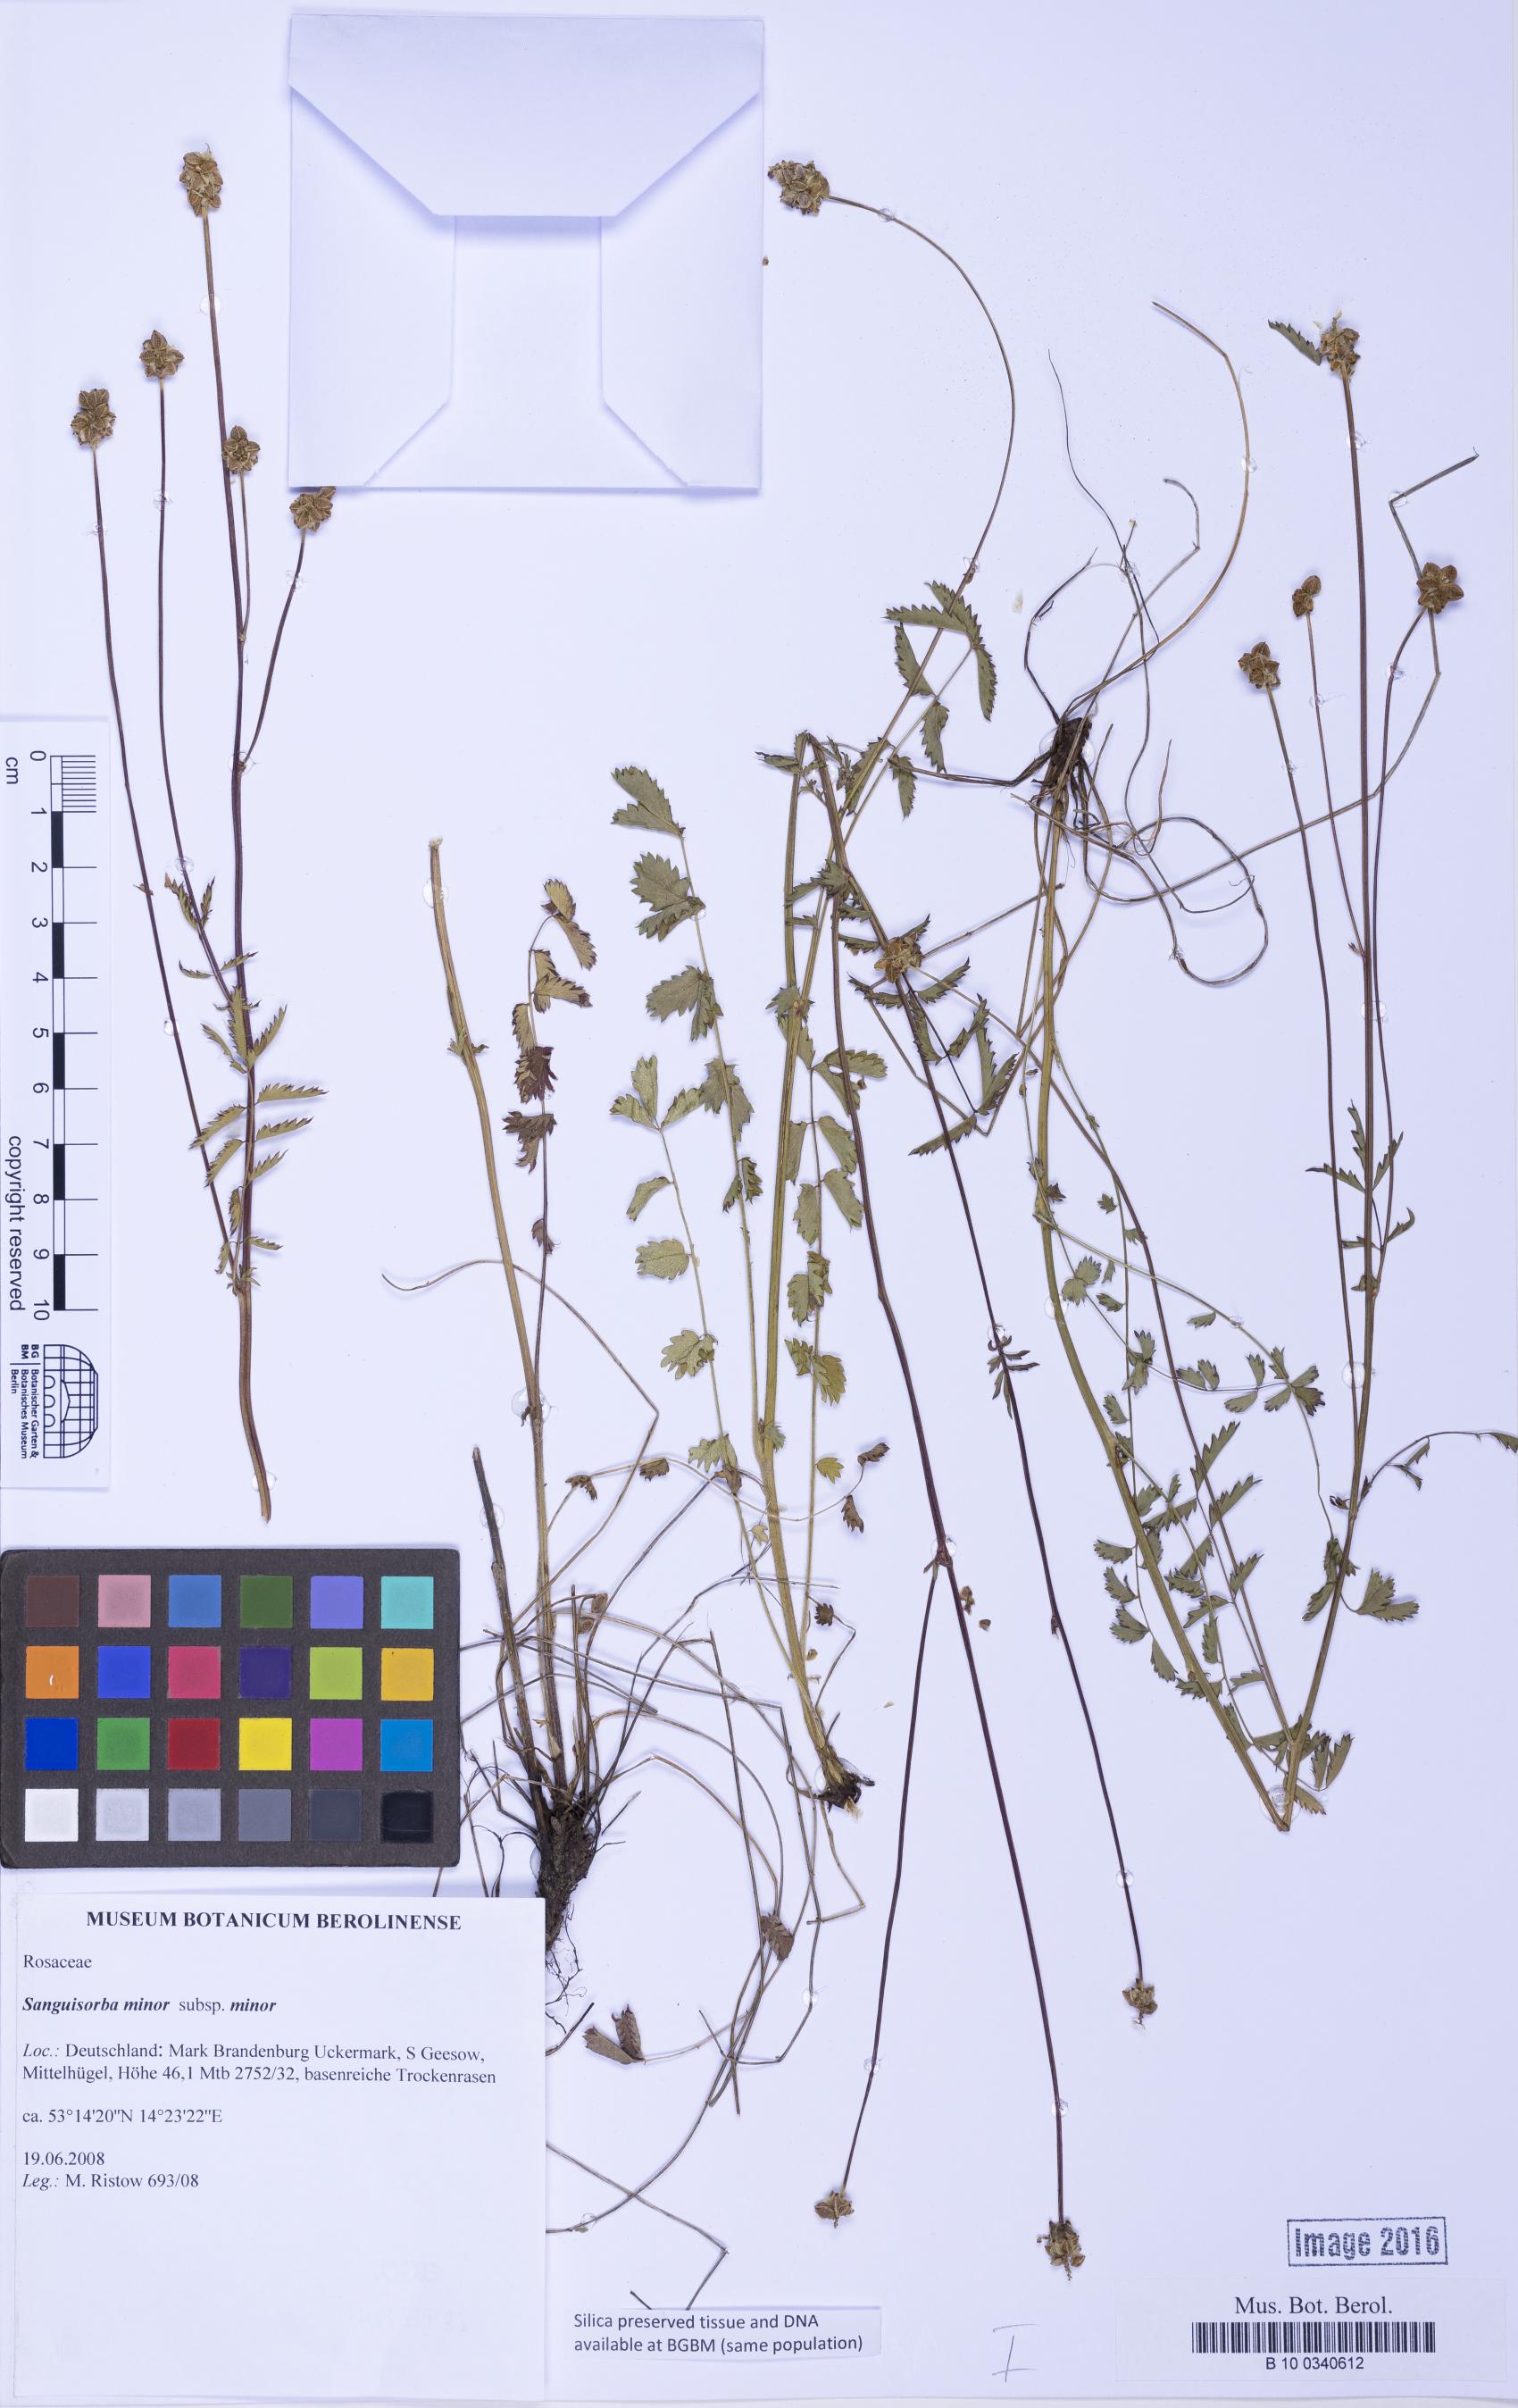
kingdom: Plantae
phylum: Tracheophyta
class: Magnoliopsida
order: Rosales
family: Rosaceae
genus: Poterium
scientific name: Poterium sanguisorba
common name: Salad burnet
